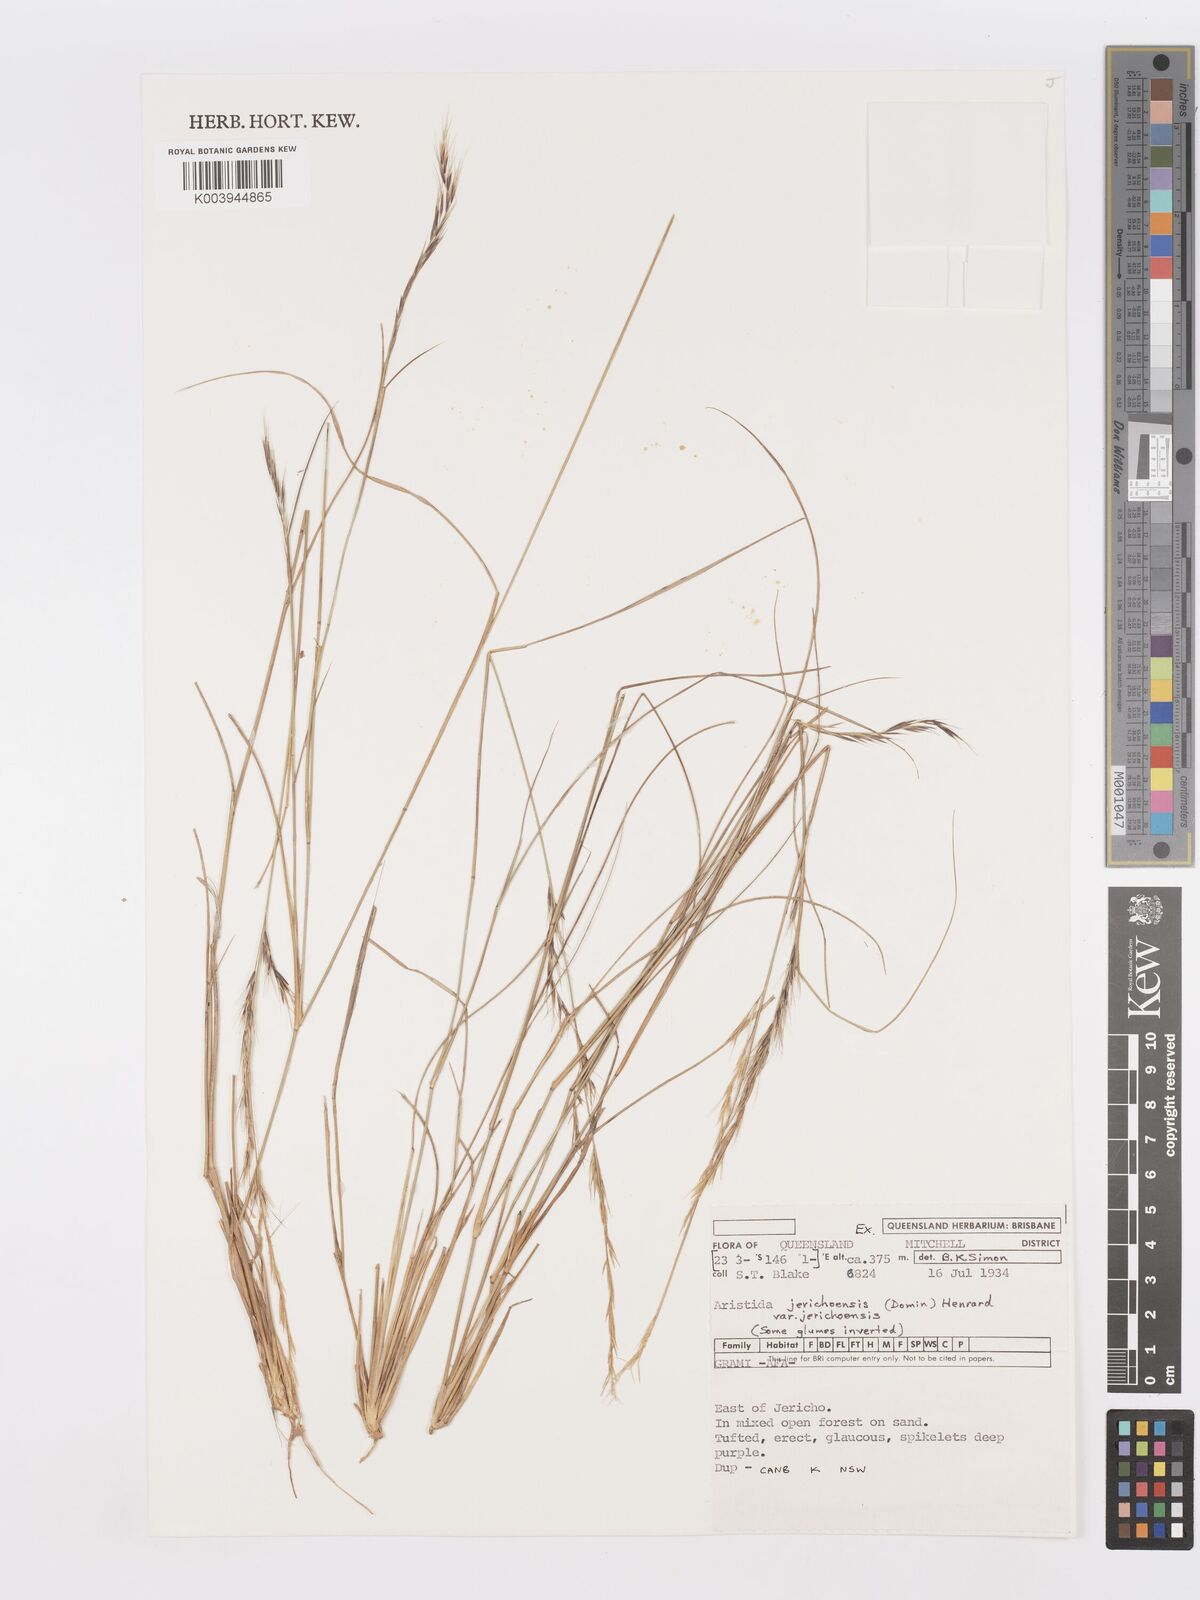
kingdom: Plantae
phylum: Tracheophyta
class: Liliopsida
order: Poales
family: Poaceae
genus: Aristida
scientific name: Aristida jerichoensis
